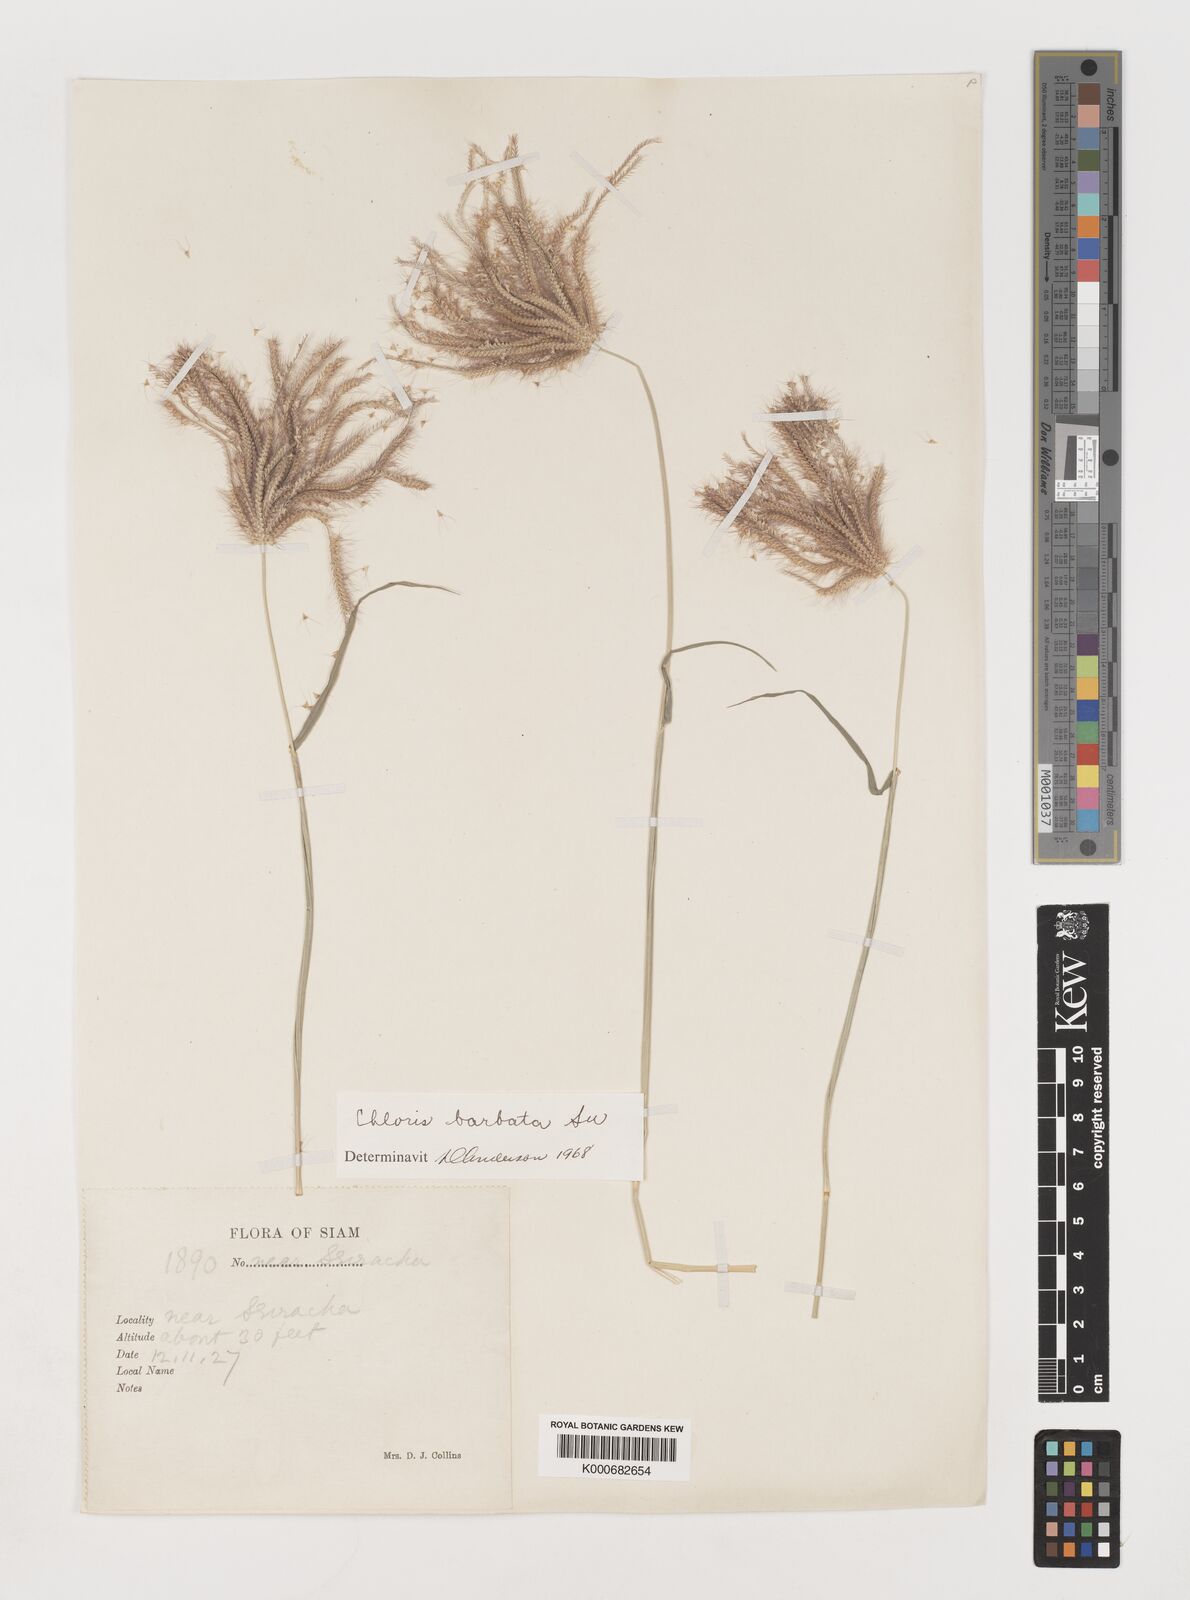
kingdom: Plantae
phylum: Tracheophyta
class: Liliopsida
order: Poales
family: Poaceae
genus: Chloris
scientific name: Chloris barbata
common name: Swollen fingergrass
